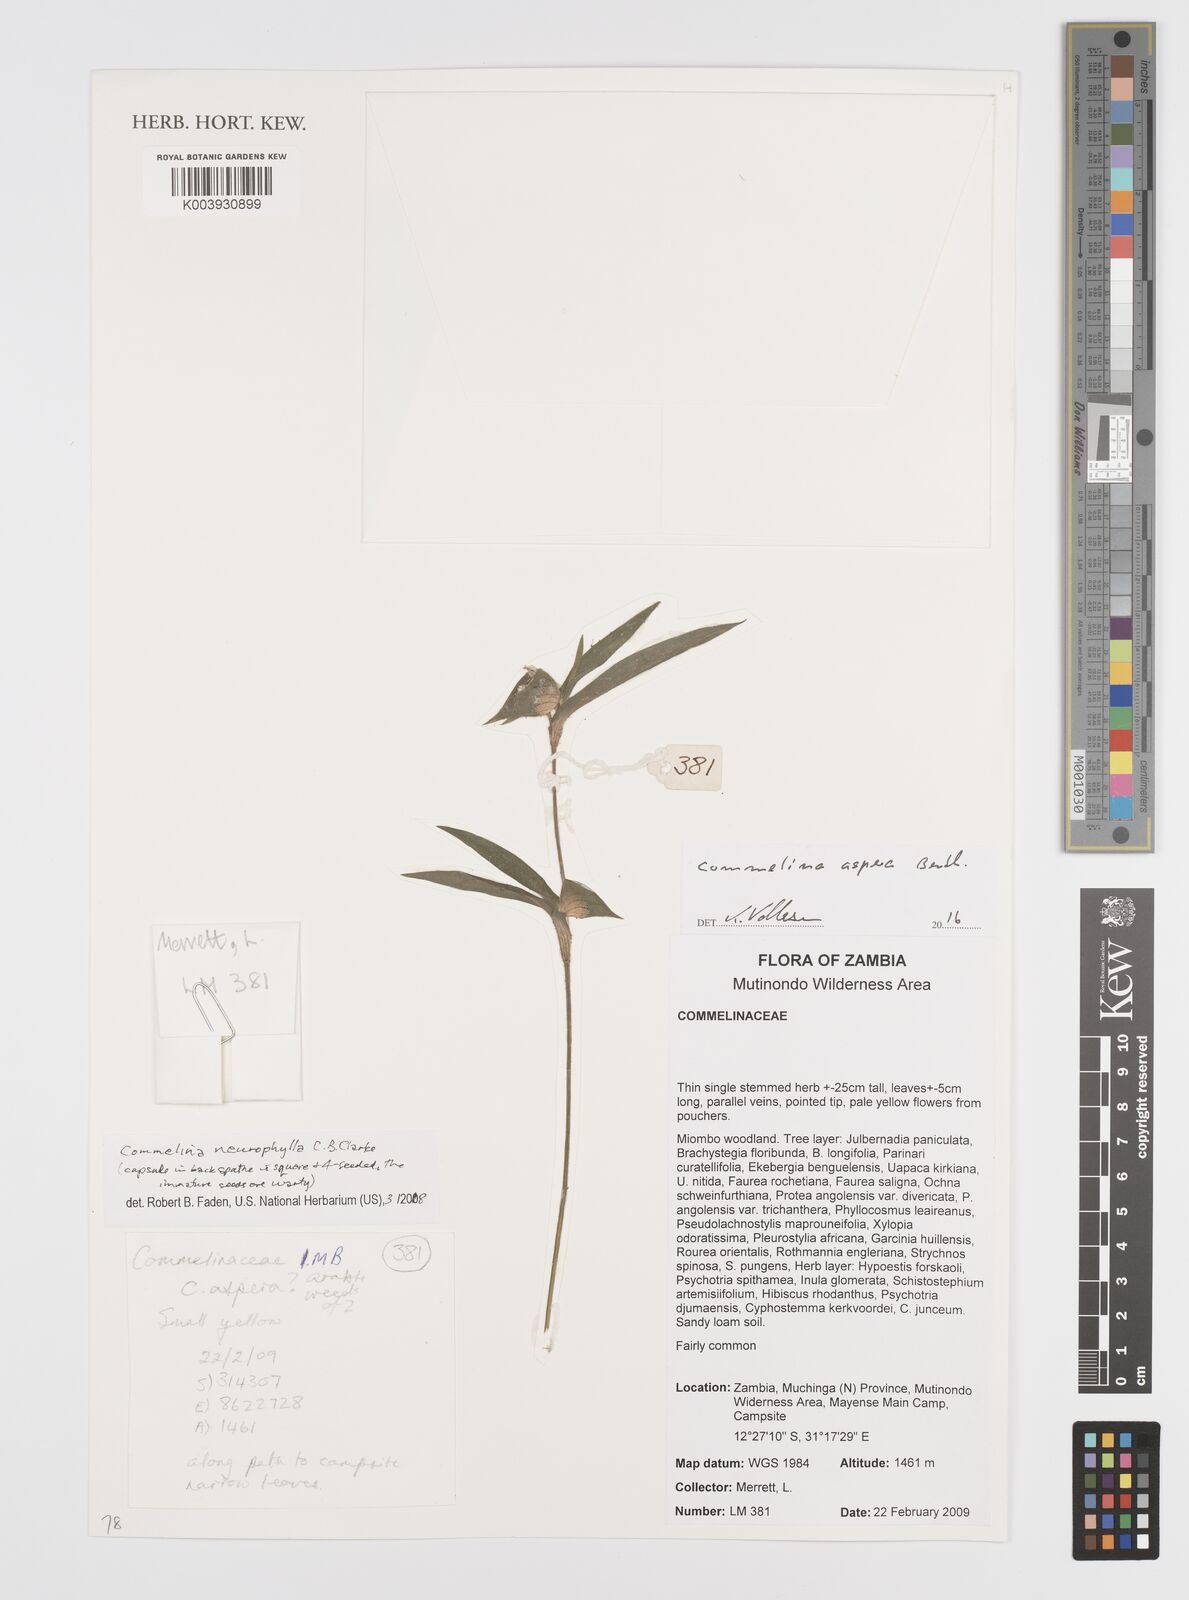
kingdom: Plantae
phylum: Tracheophyta
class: Liliopsida
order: Commelinales
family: Commelinaceae
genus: Commelina
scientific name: Commelina neurophylla
